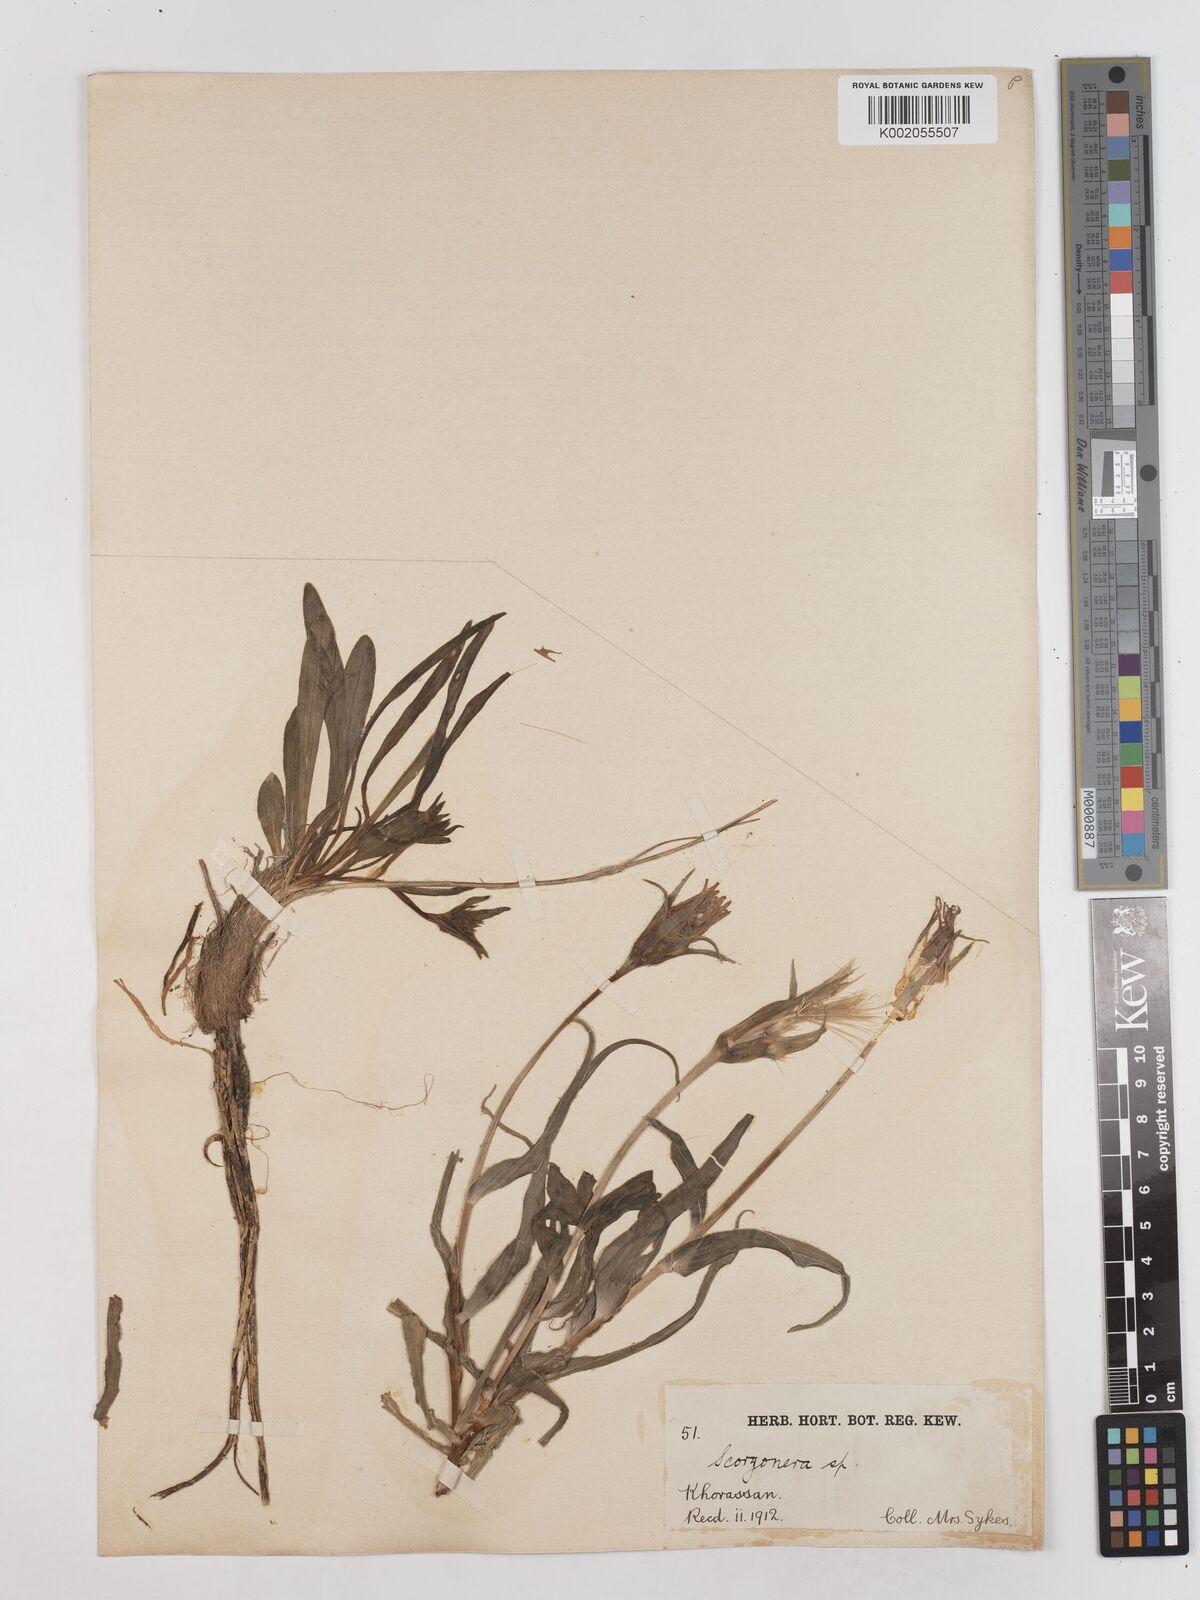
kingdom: Plantae
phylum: Tracheophyta
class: Magnoliopsida
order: Asterales
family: Asteraceae
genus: Takhtajaniantha
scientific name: Takhtajaniantha austriaca
